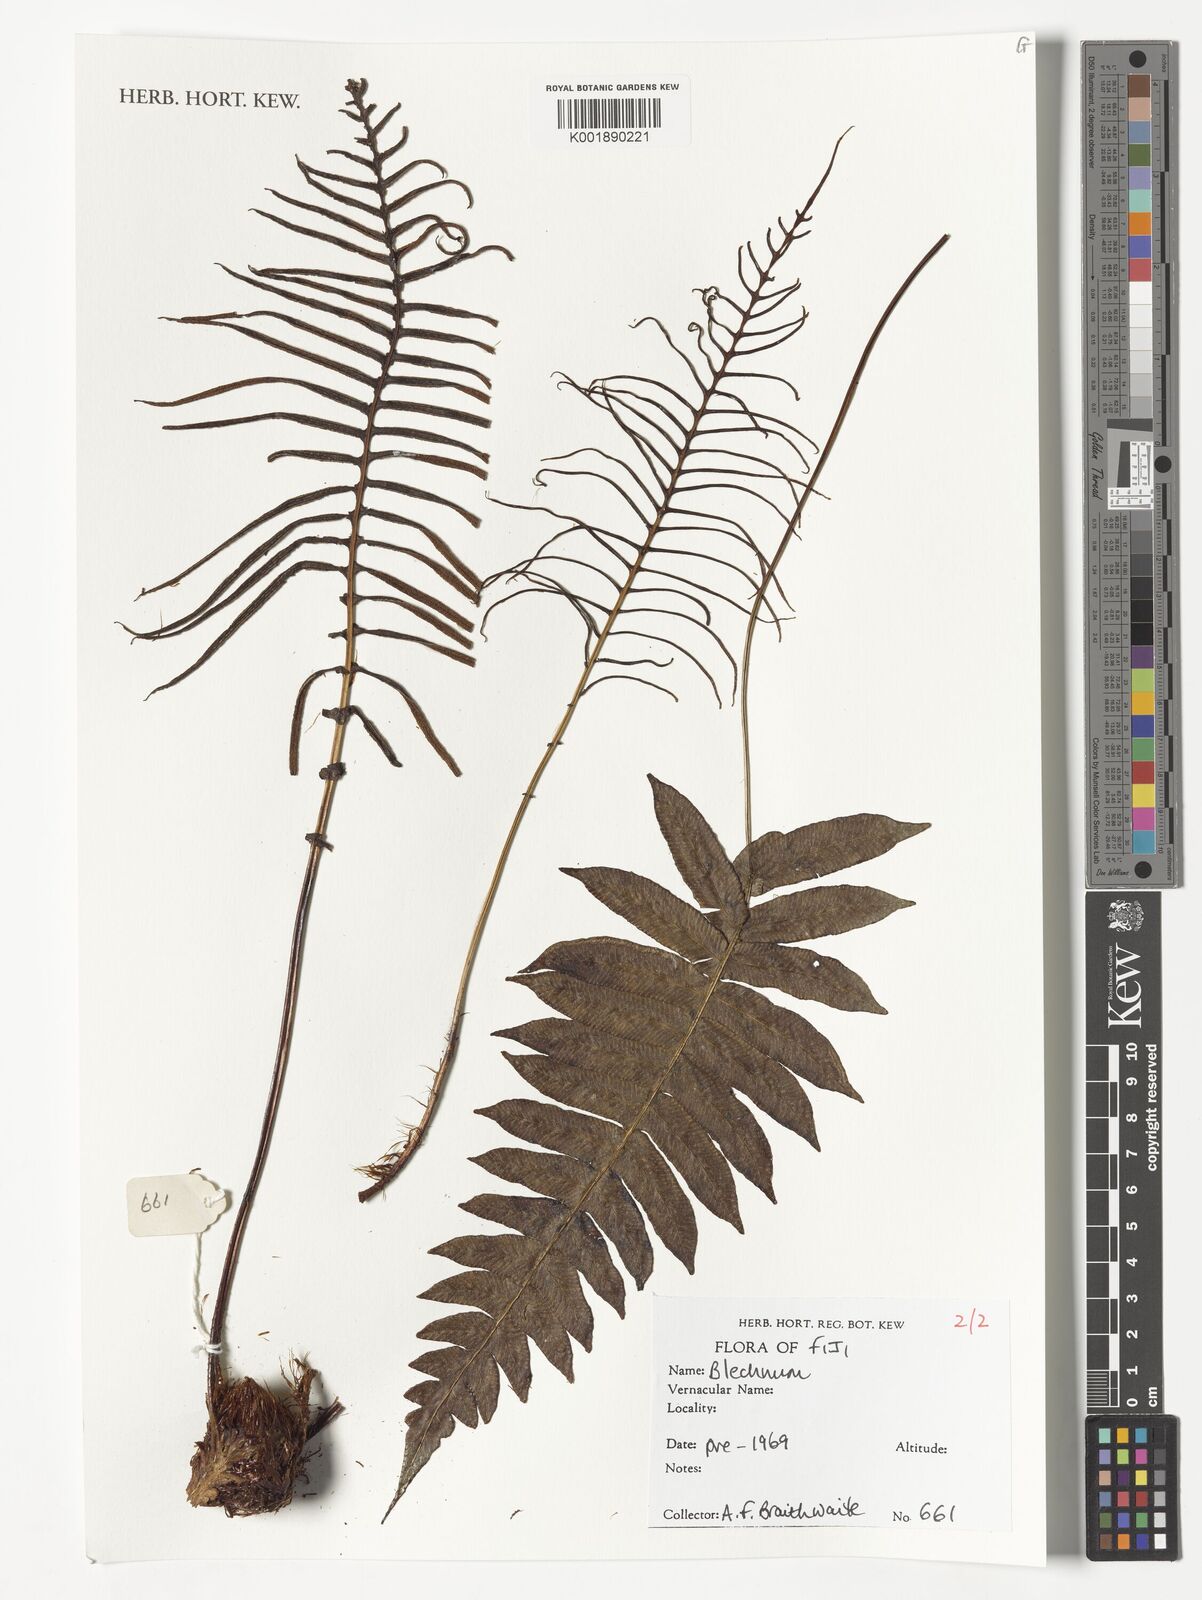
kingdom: Plantae
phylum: Tracheophyta
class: Polypodiopsida
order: Polypodiales
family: Blechnaceae
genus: Blechnum
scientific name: Blechnum
